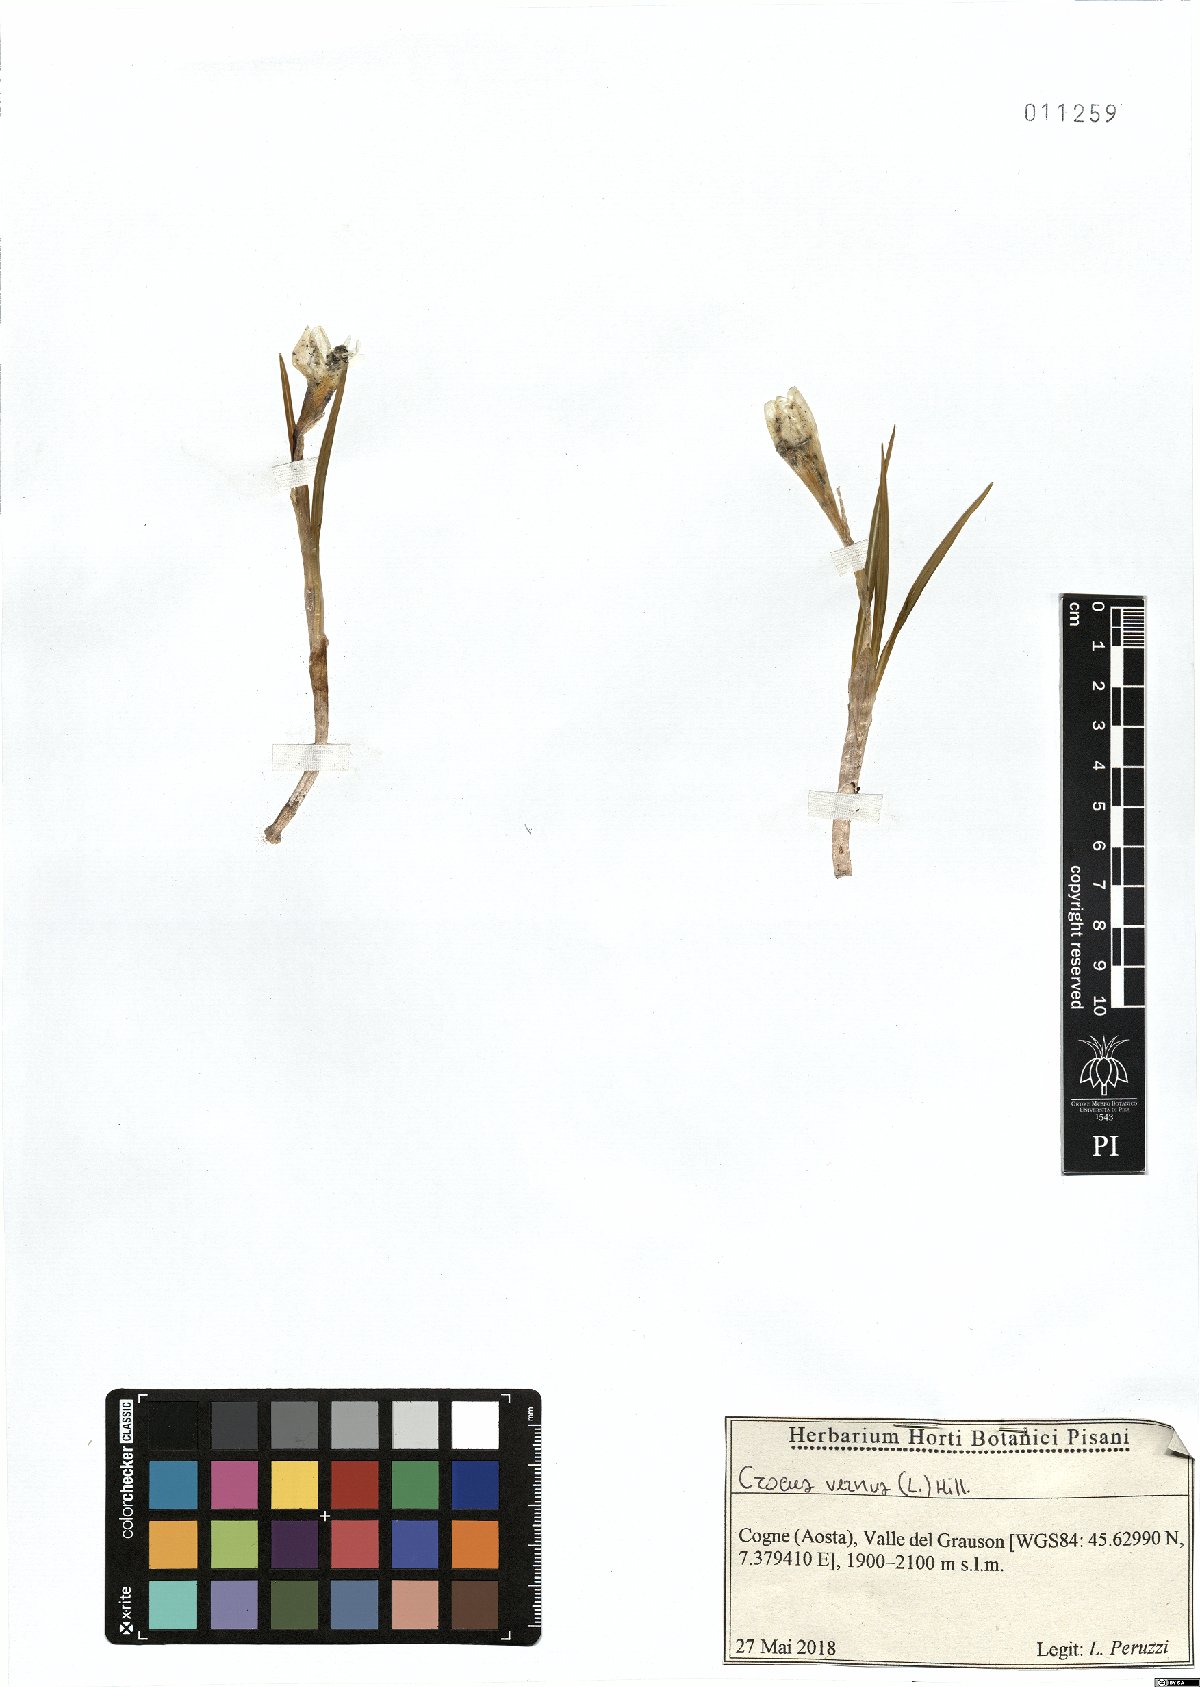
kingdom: Plantae
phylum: Tracheophyta
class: Liliopsida
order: Asparagales
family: Iridaceae
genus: Crocus
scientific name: Crocus vernus
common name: Spring crocus
